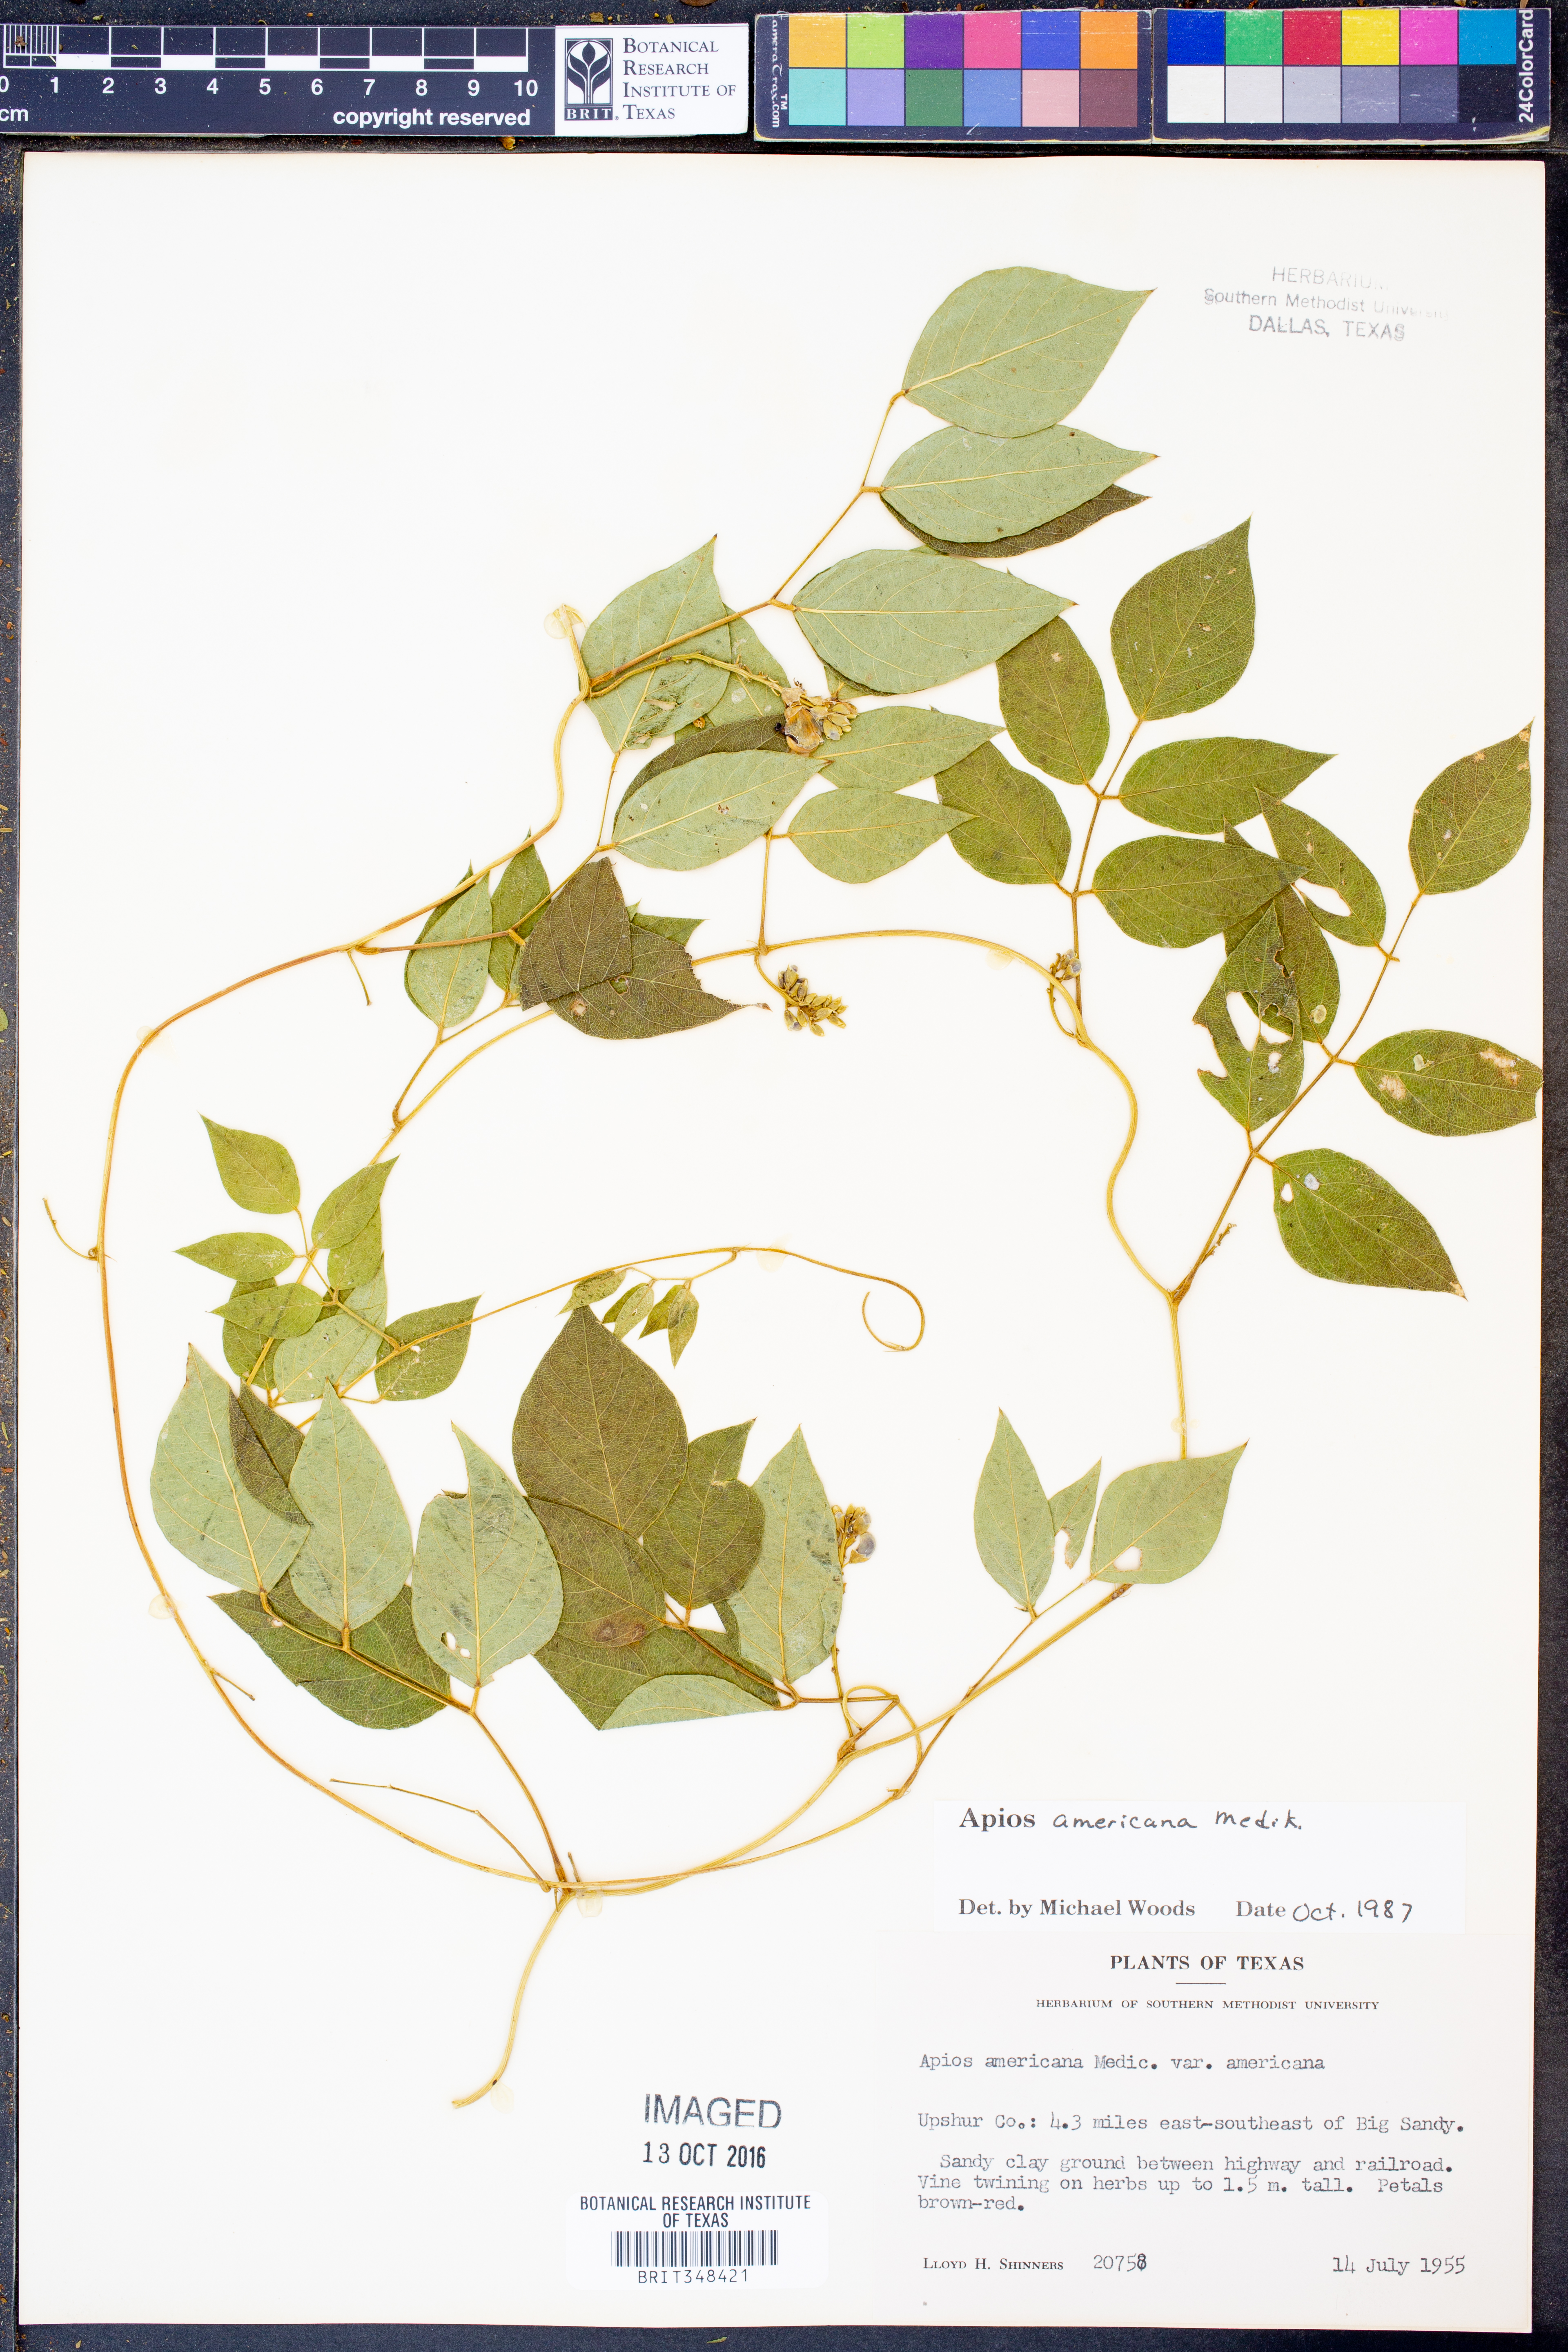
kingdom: Plantae
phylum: Tracheophyta
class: Magnoliopsida
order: Fabales
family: Fabaceae
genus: Apios
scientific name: Apios americana
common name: American potato-bean
